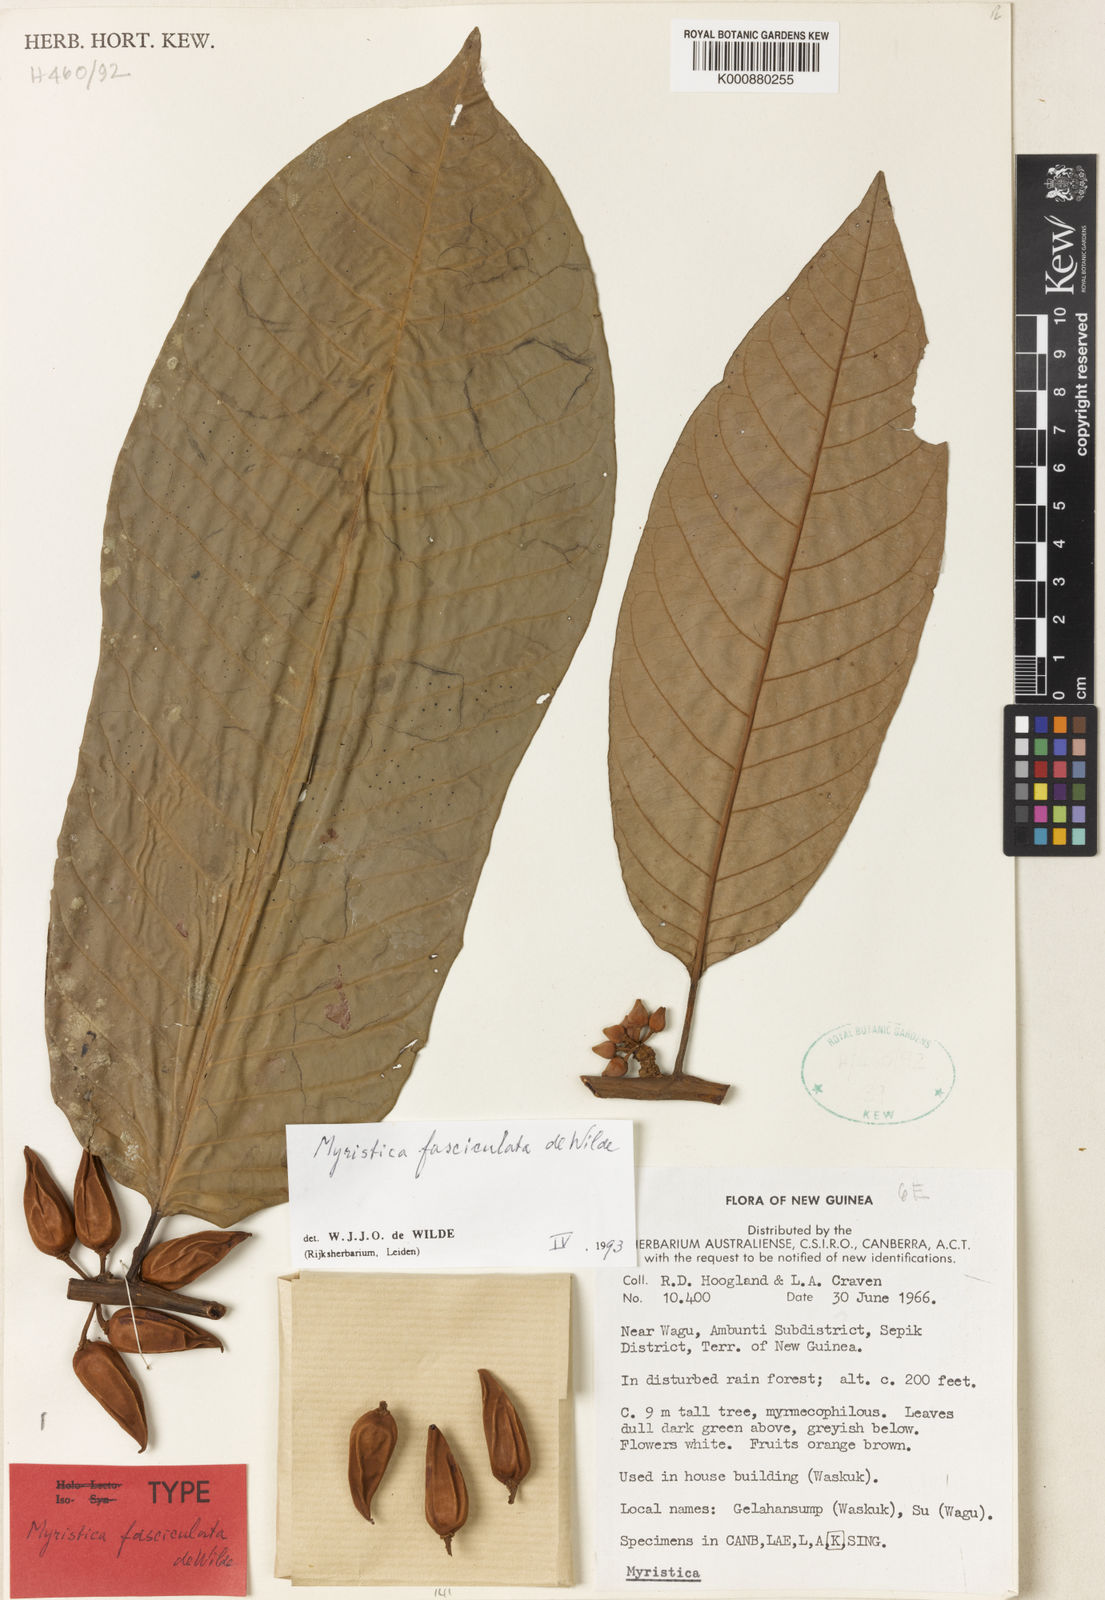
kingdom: Plantae
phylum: Tracheophyta
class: Magnoliopsida
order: Magnoliales
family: Myristicaceae
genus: Myristica
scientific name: Myristica fasciculata
